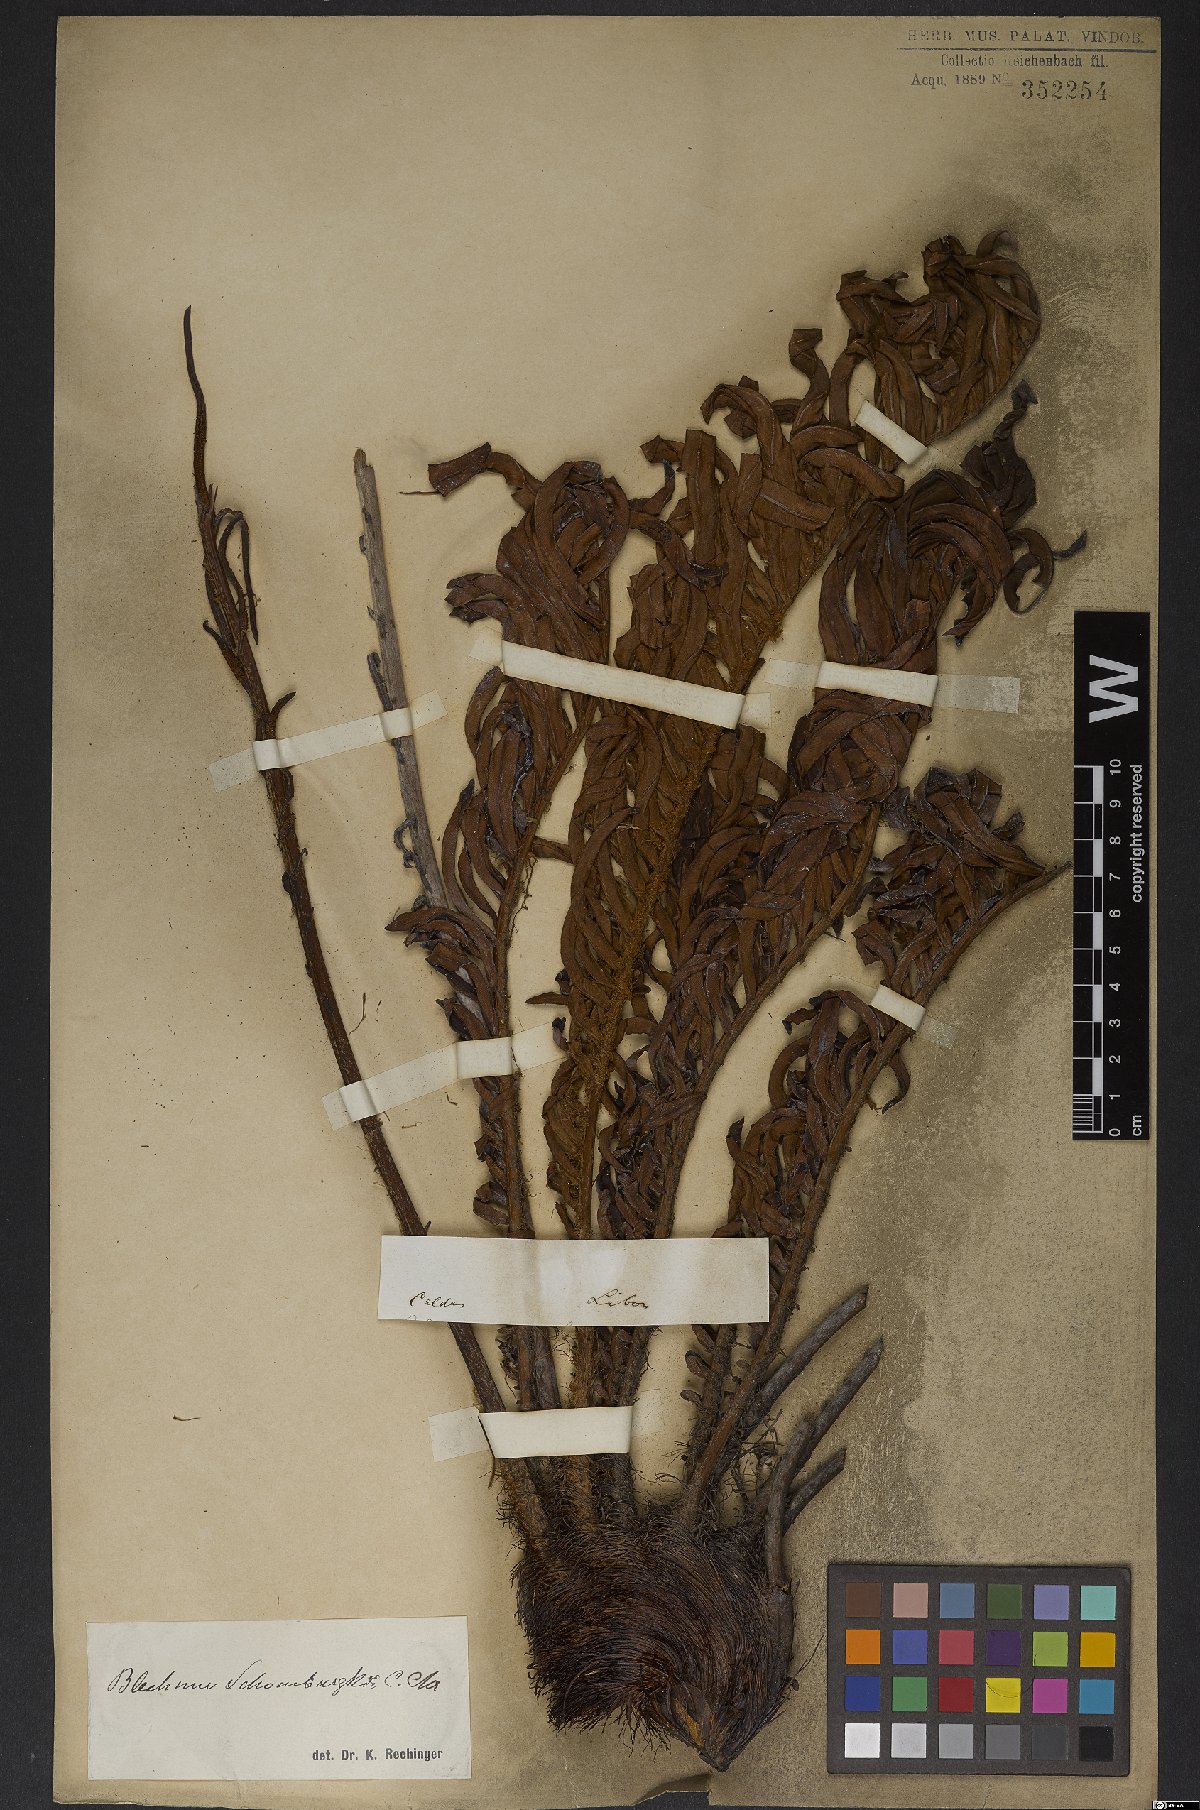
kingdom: Plantae
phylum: Tracheophyta
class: Polypodiopsida
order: Polypodiales
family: Blechnaceae
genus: Lomariocycas
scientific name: Lomariocycas schomburgkii
